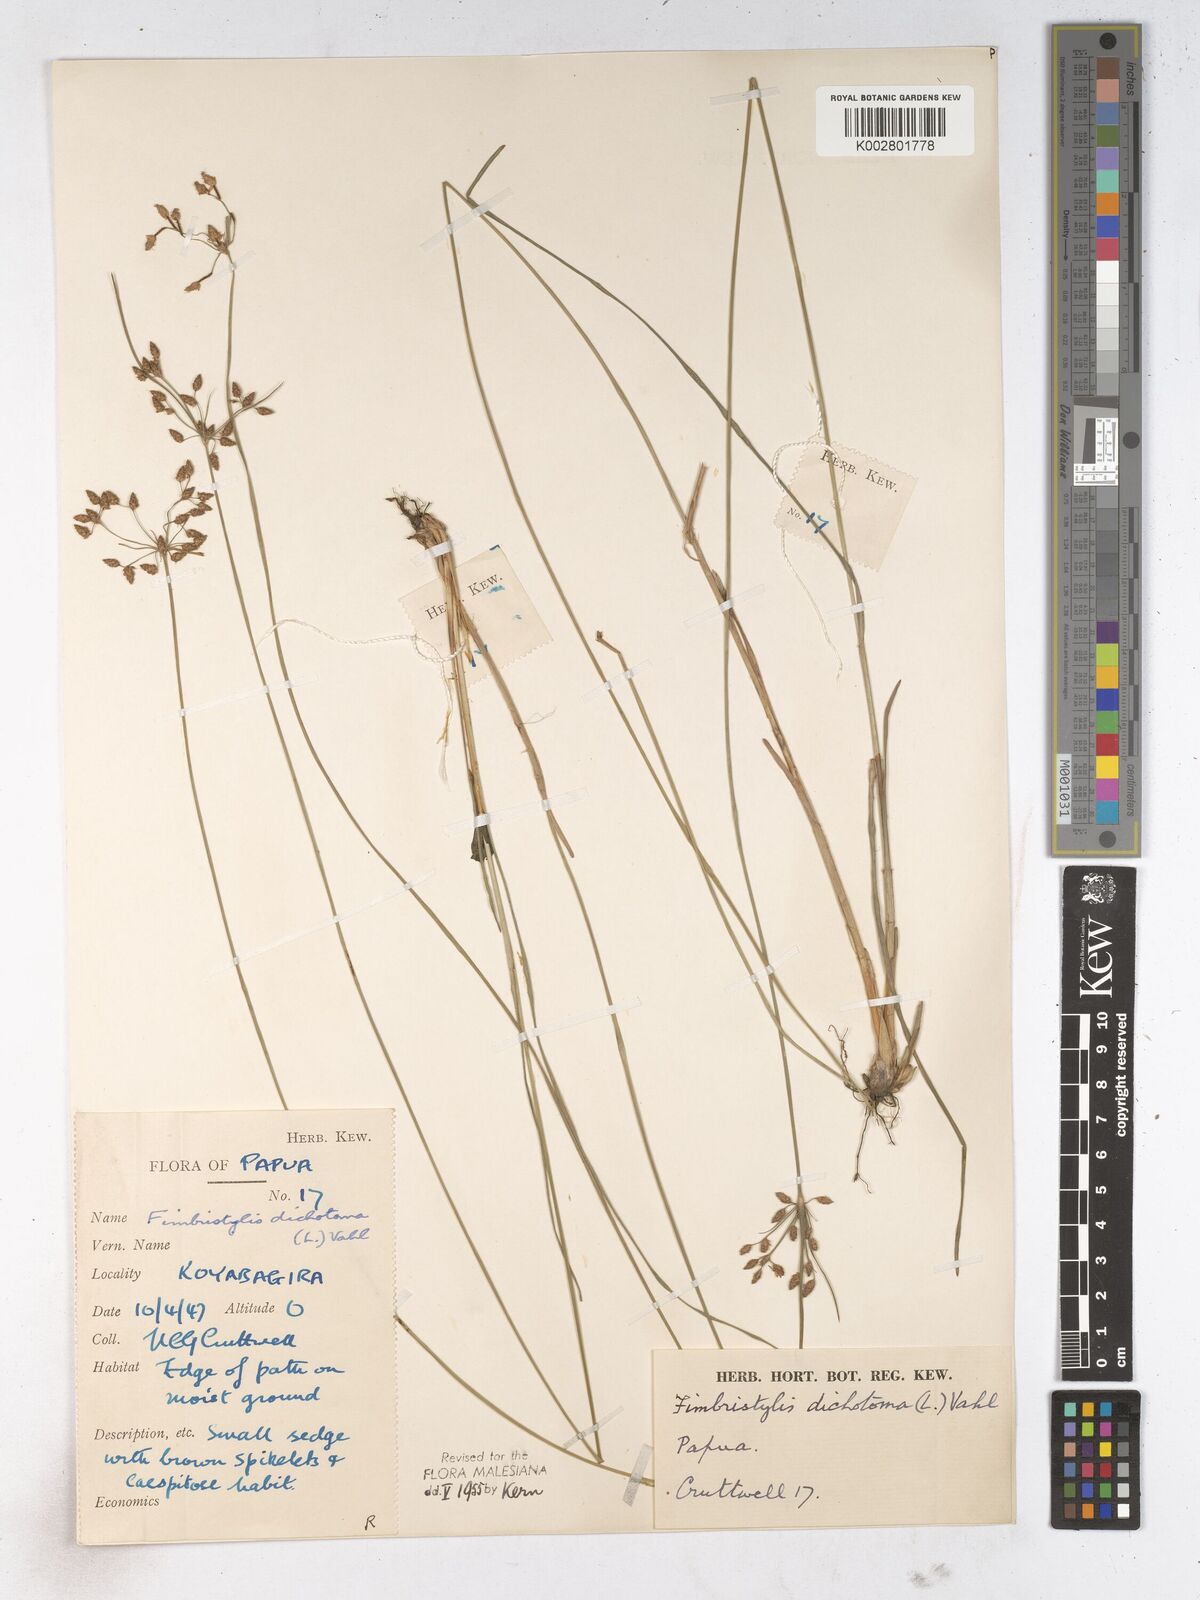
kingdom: Plantae
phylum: Tracheophyta
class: Liliopsida
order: Poales
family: Cyperaceae
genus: Fimbristylis
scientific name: Fimbristylis dichotoma
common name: Forked fimbry
